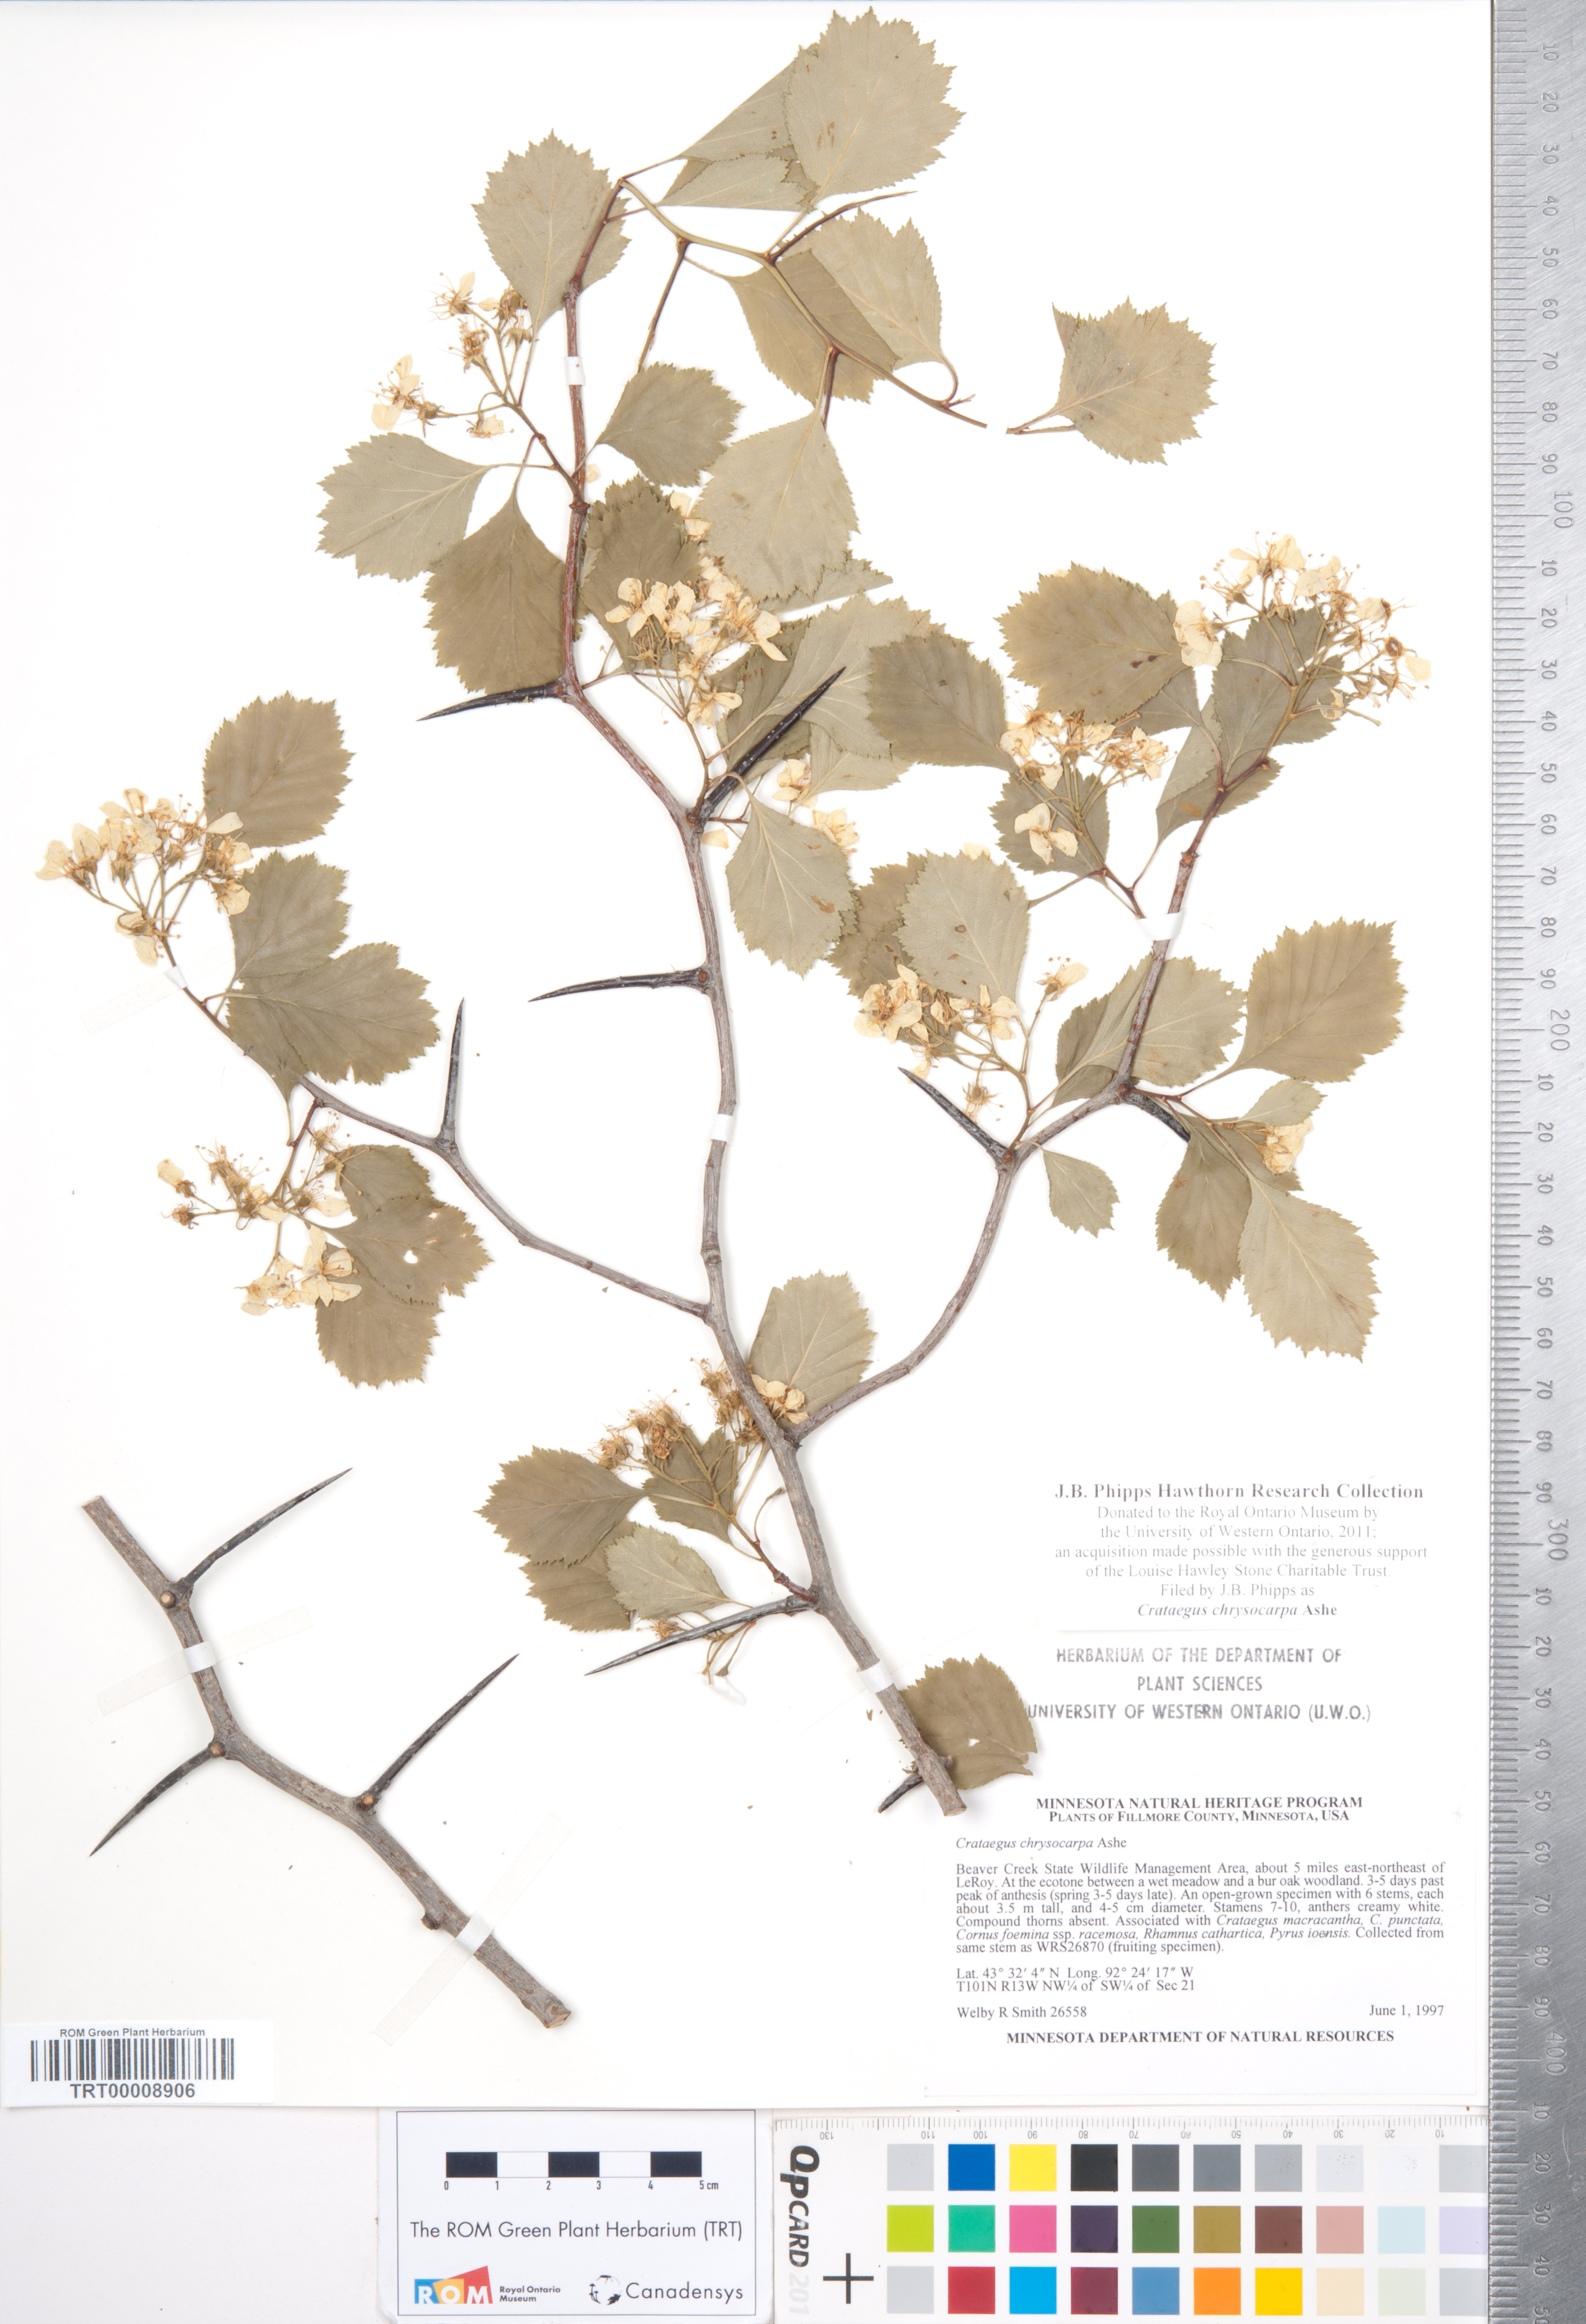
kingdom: Plantae
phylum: Tracheophyta
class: Magnoliopsida
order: Rosales
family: Rosaceae
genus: Crataegus
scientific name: Crataegus chrysocarpa
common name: Fire-berry hawthorn
